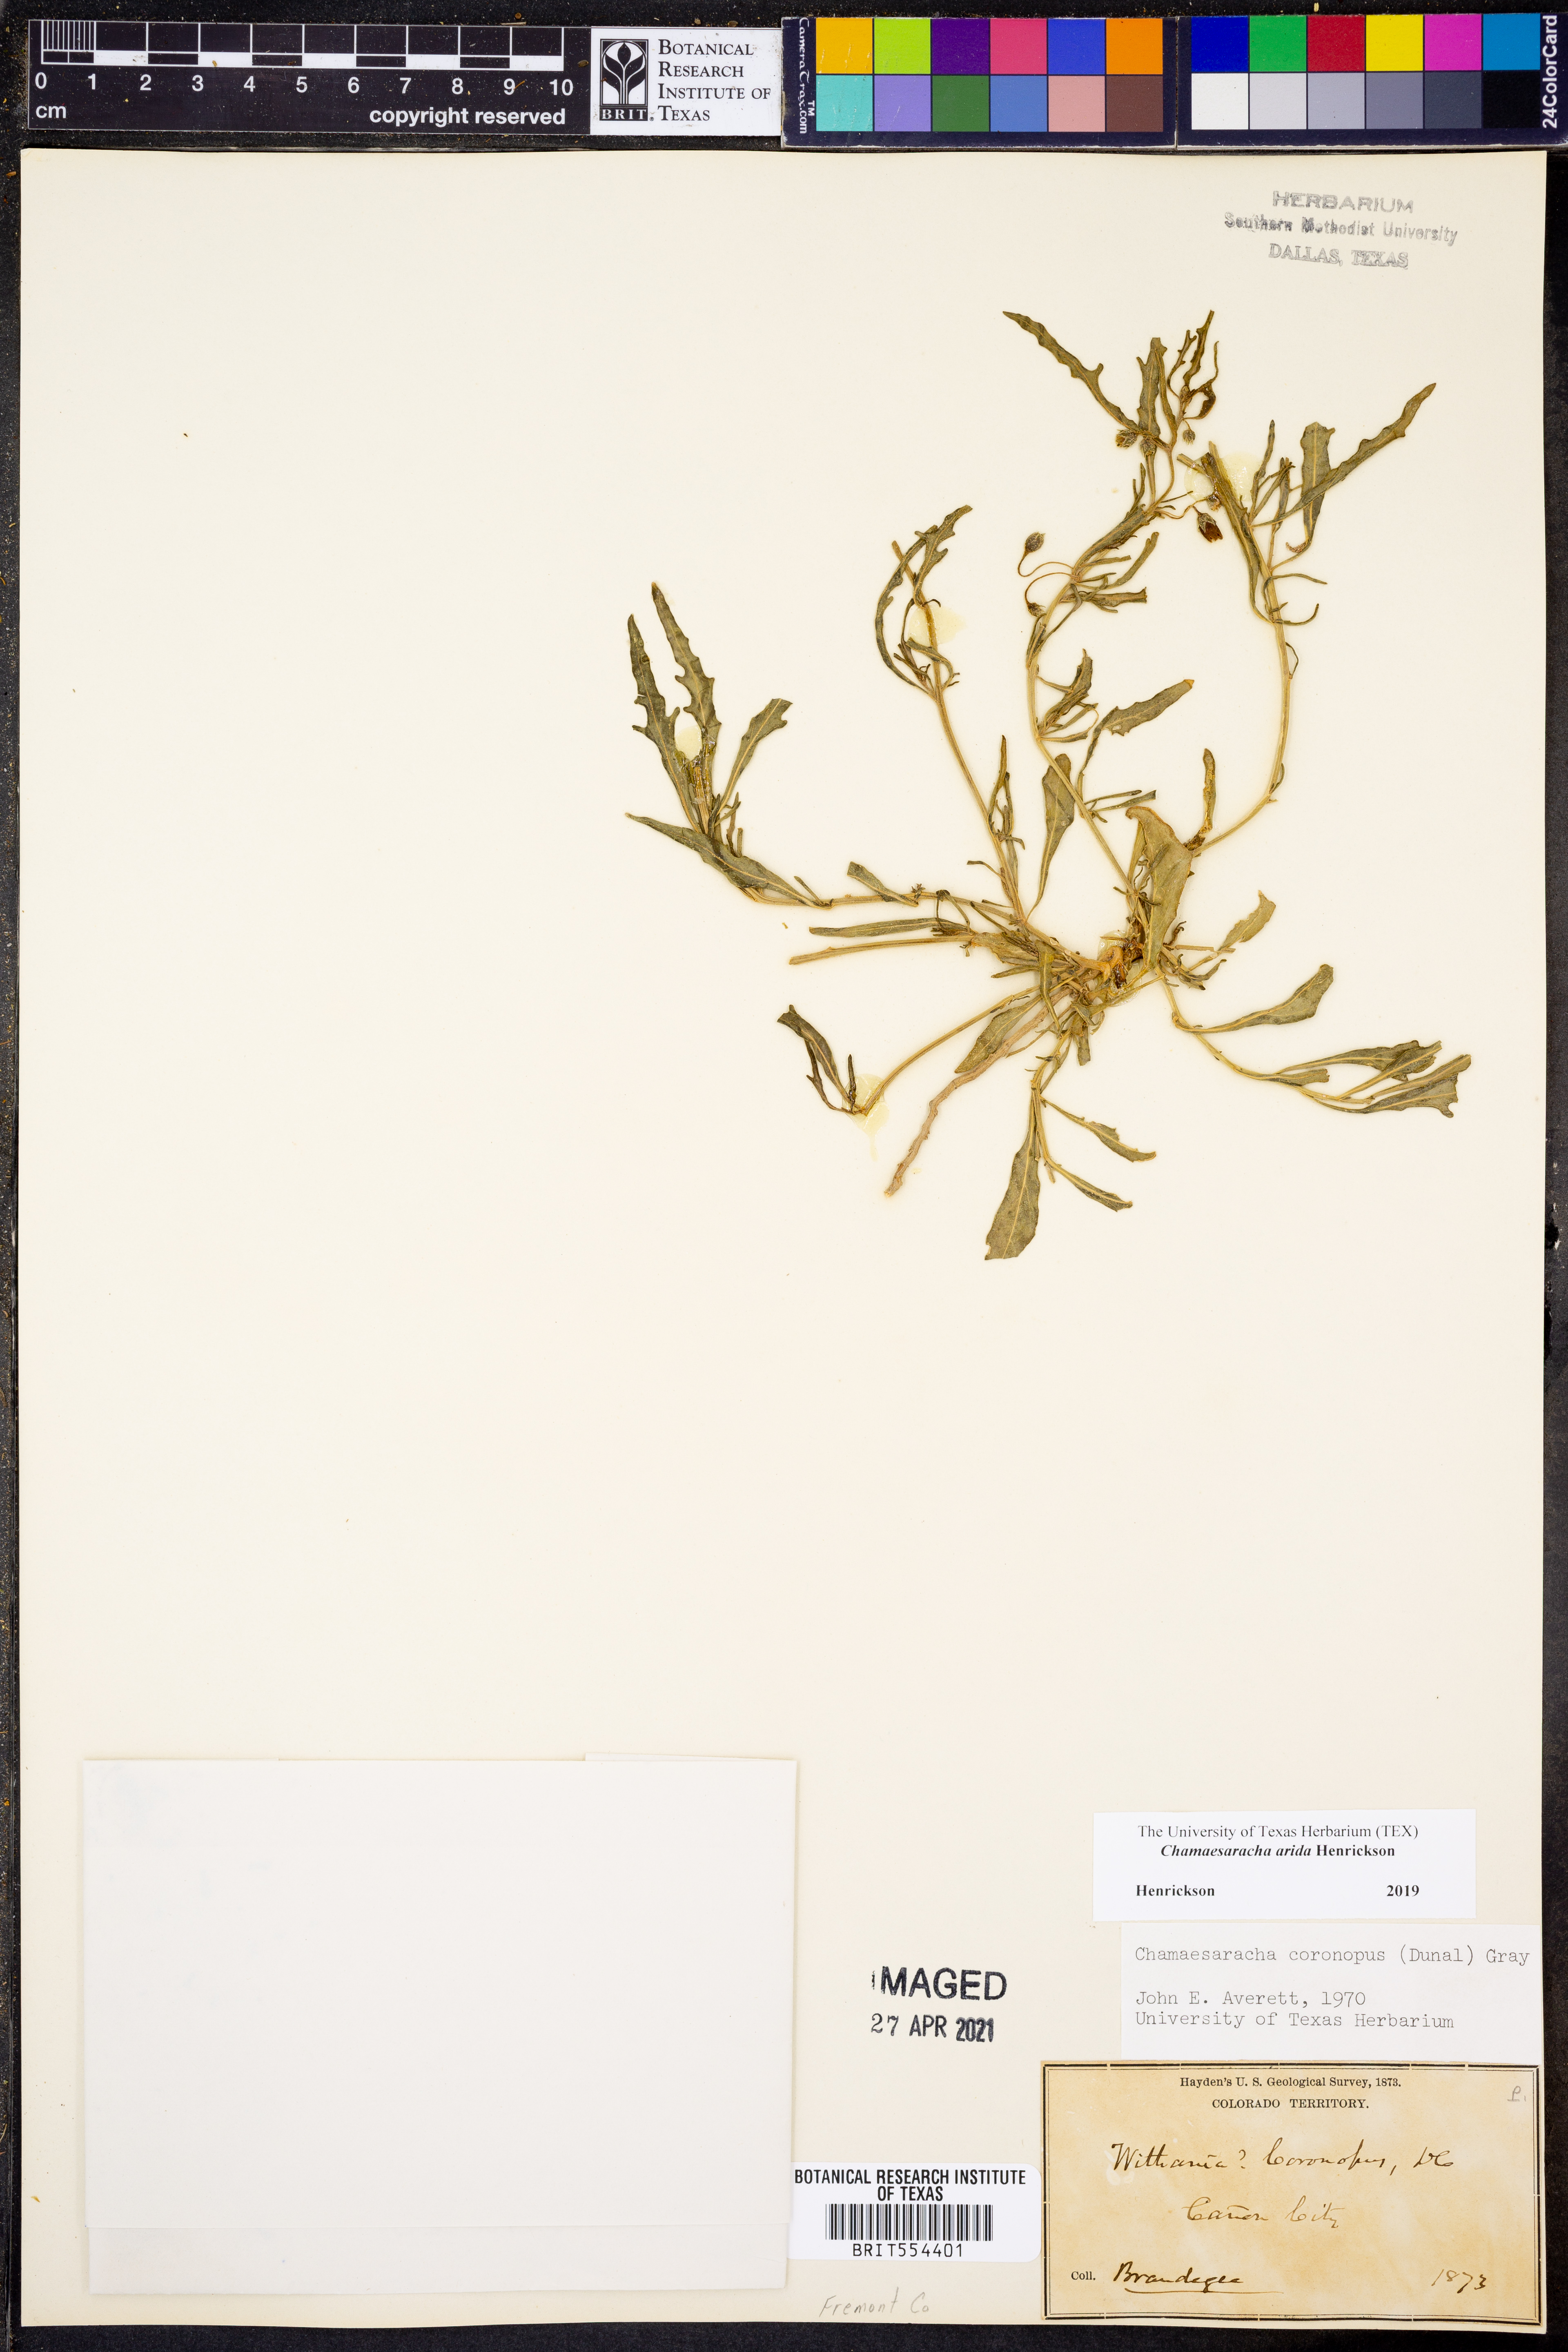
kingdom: Plantae
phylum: Tracheophyta
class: Magnoliopsida
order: Solanales
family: Solanaceae
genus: Chamaesaracha
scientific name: Chamaesaracha arida
